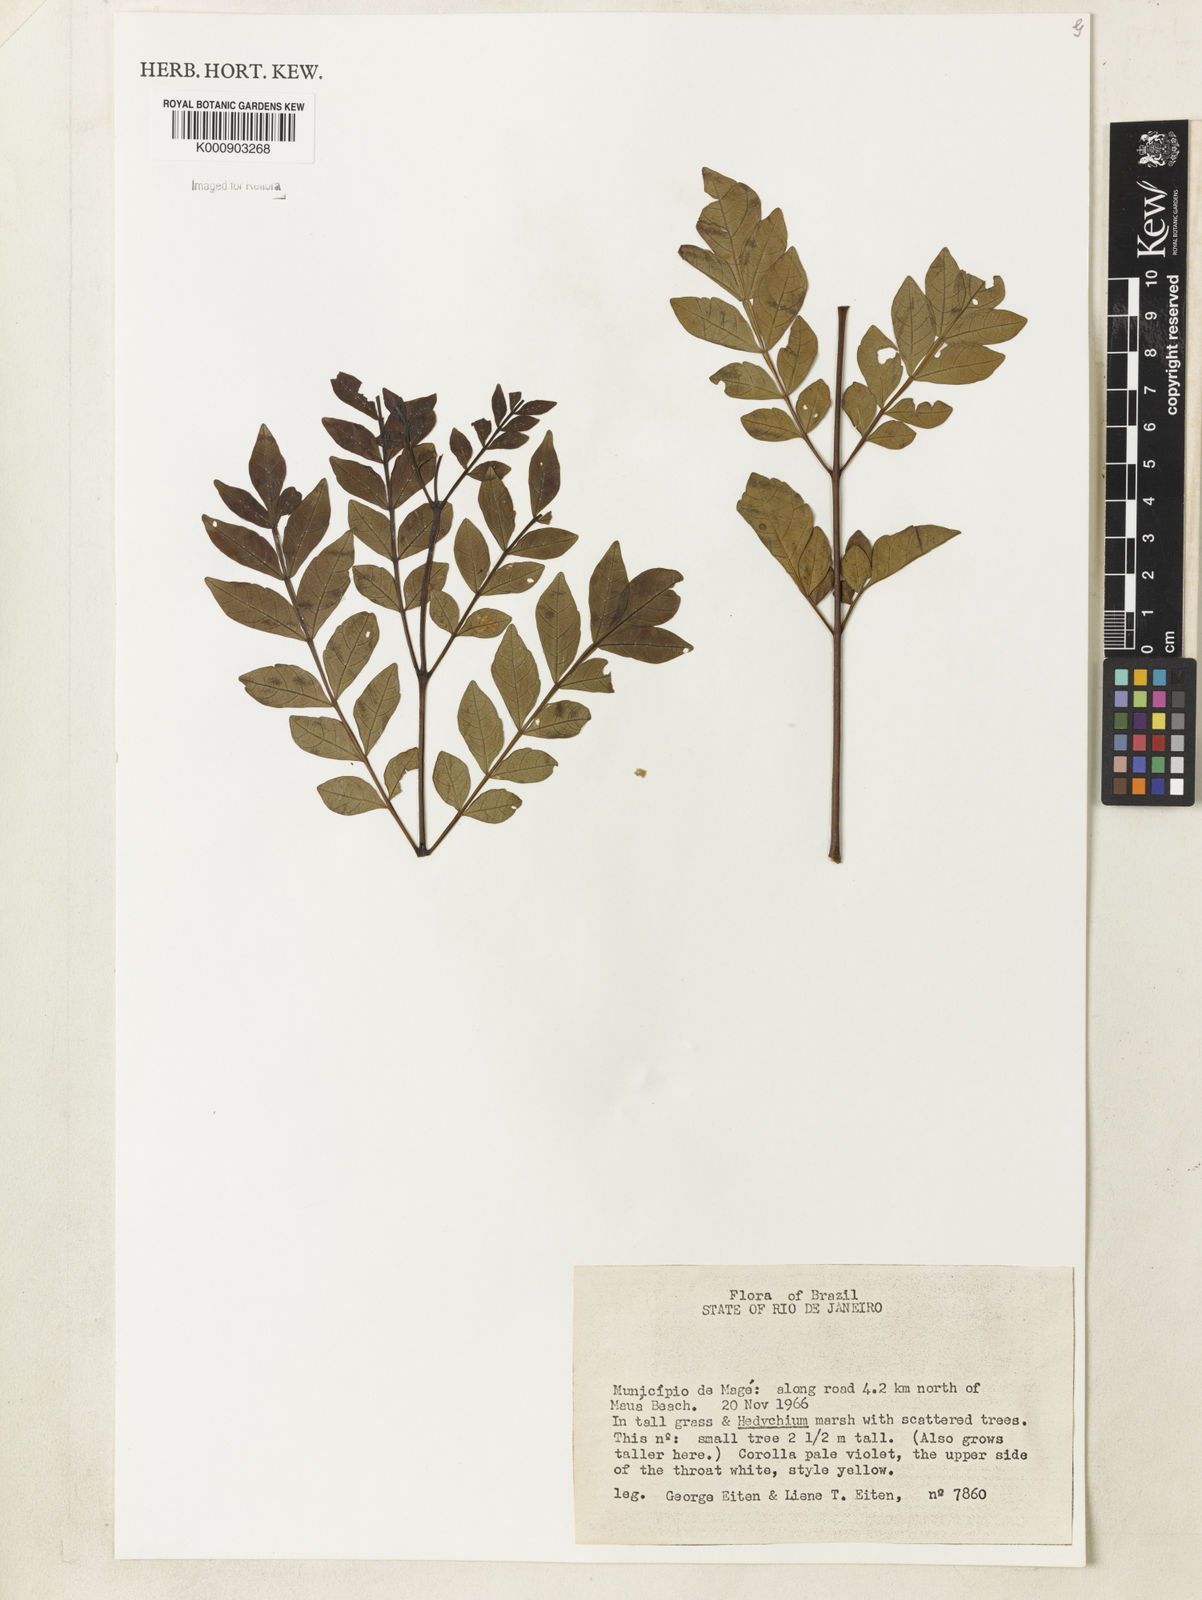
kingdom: Plantae
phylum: Tracheophyta
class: Magnoliopsida
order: Lamiales
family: Bignoniaceae
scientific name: Bignoniaceae
